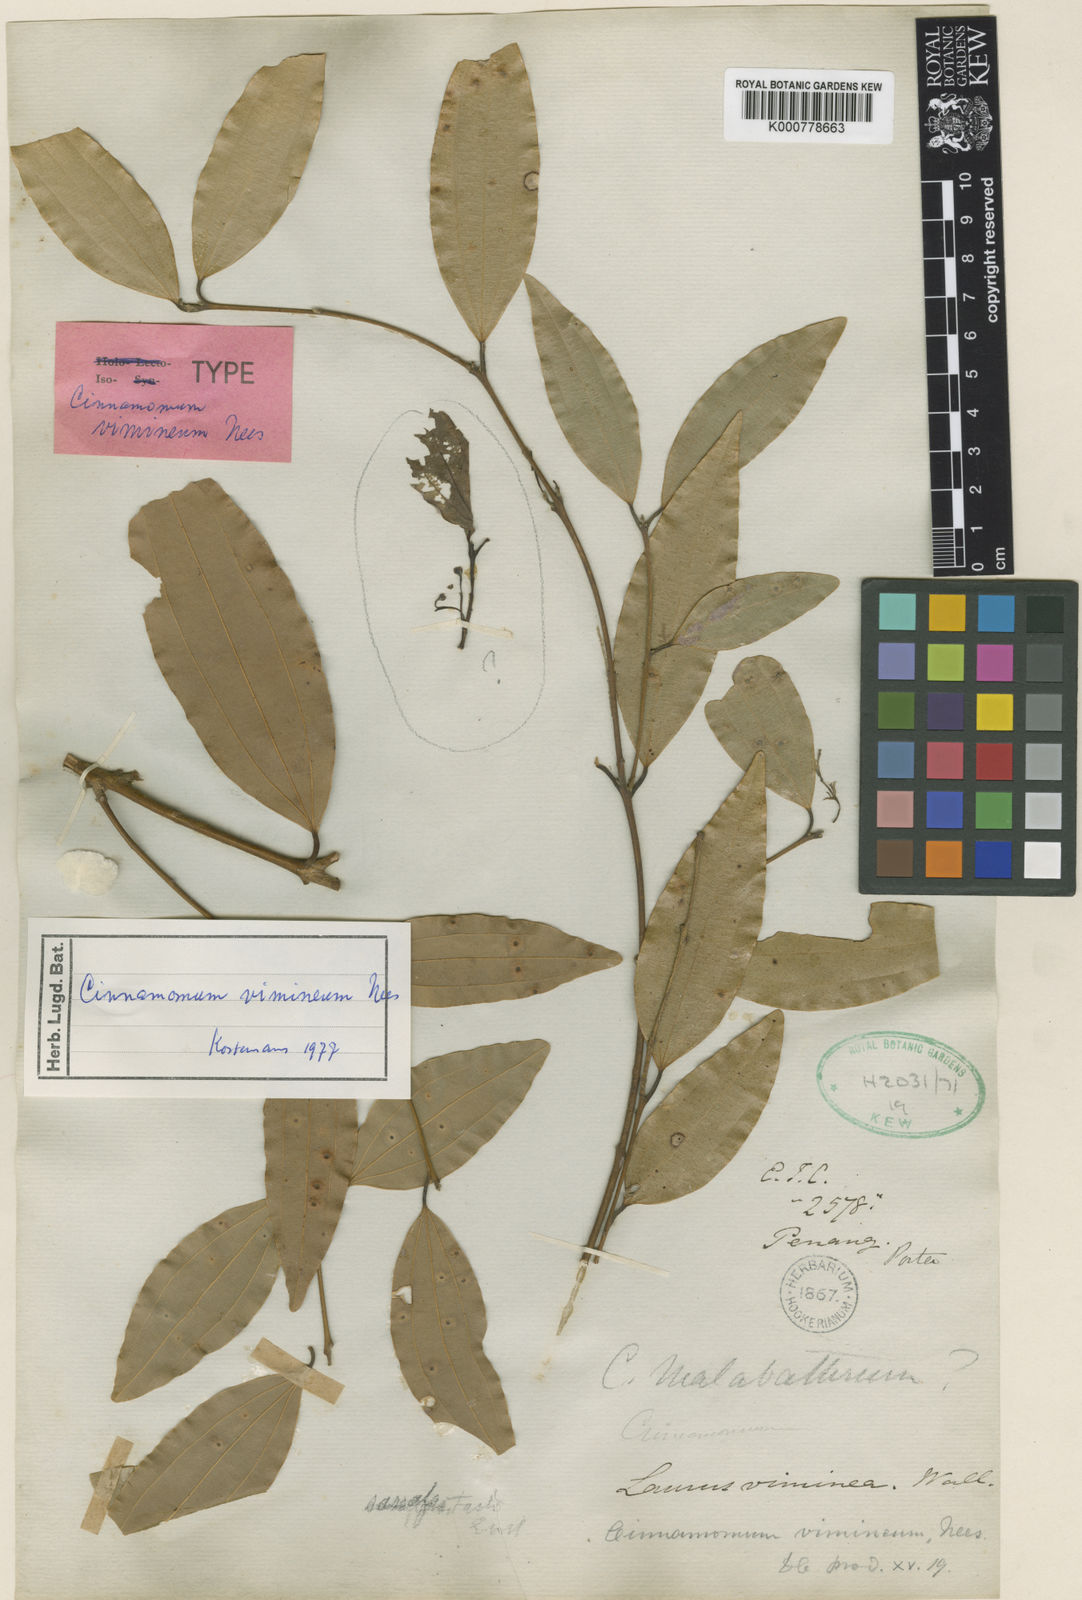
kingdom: Plantae
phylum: Tracheophyta
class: Magnoliopsida
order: Laurales
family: Lauraceae
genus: Cinnamomum
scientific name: Cinnamomum vimineum
